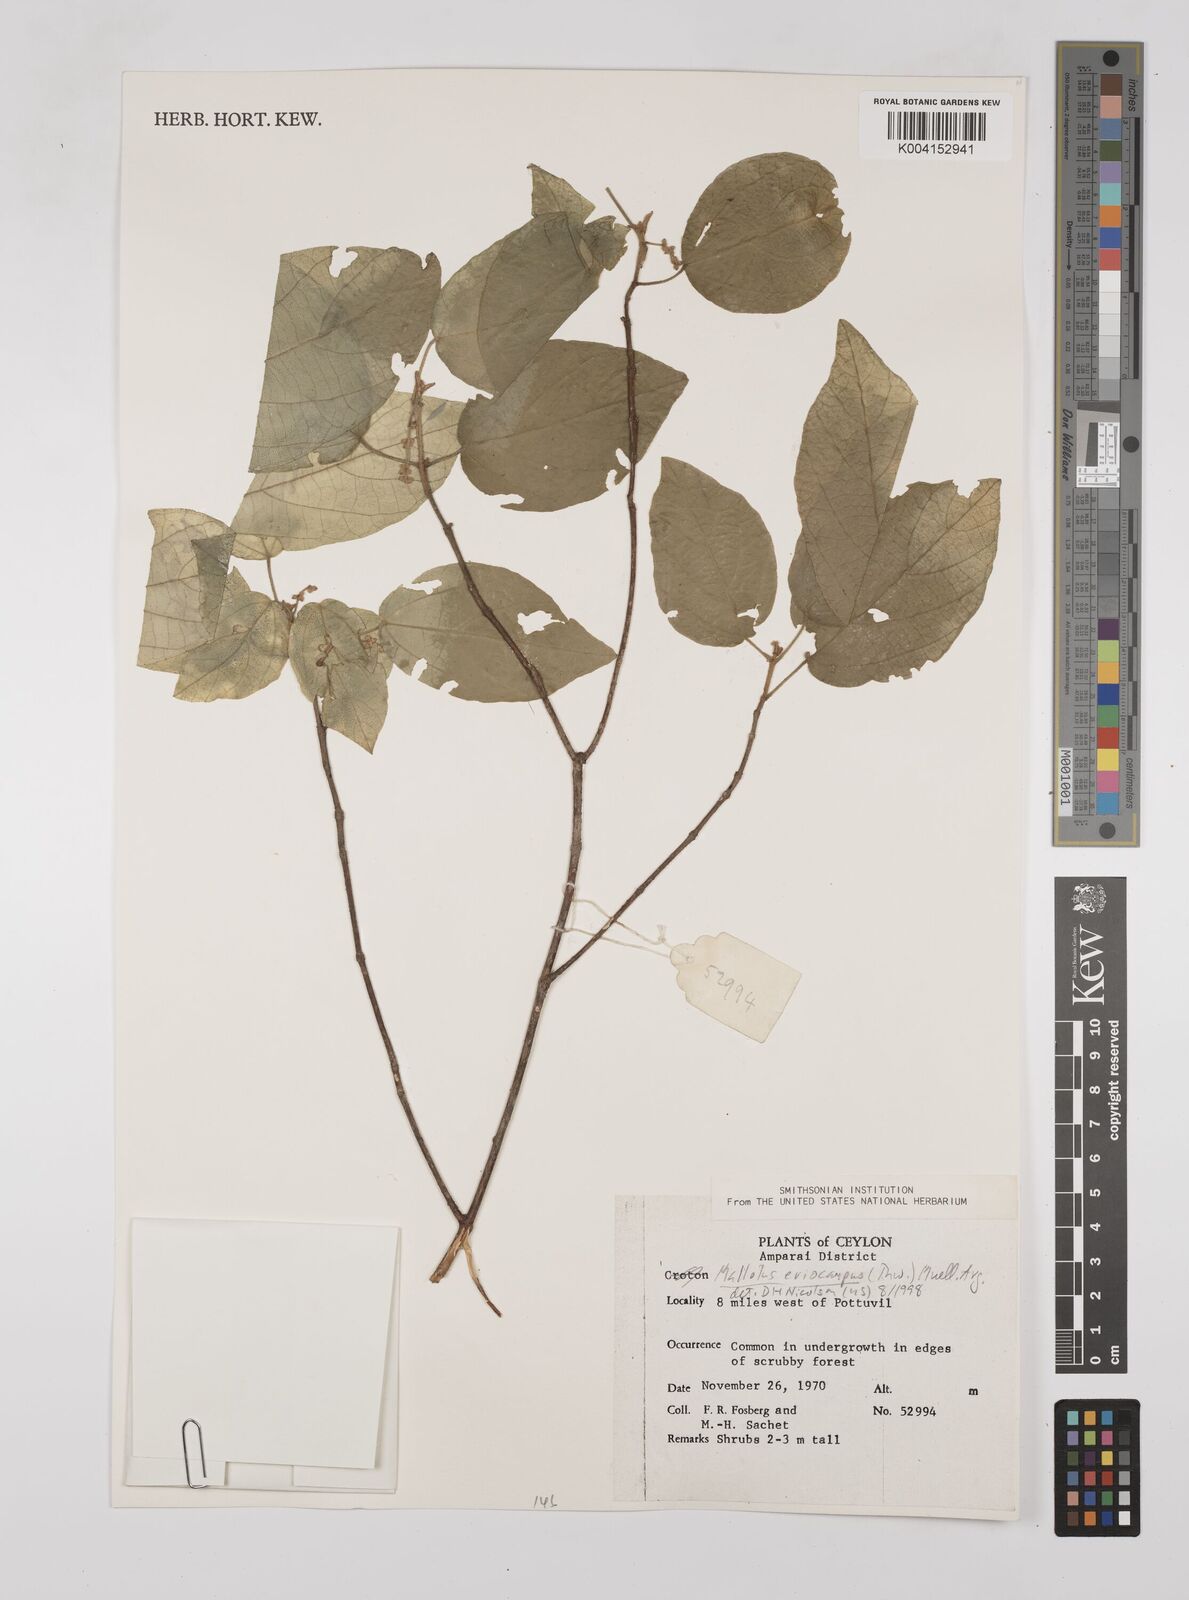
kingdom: Plantae
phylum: Tracheophyta
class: Magnoliopsida
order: Malpighiales
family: Euphorbiaceae
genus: Mallotus
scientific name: Mallotus eriocarpus
